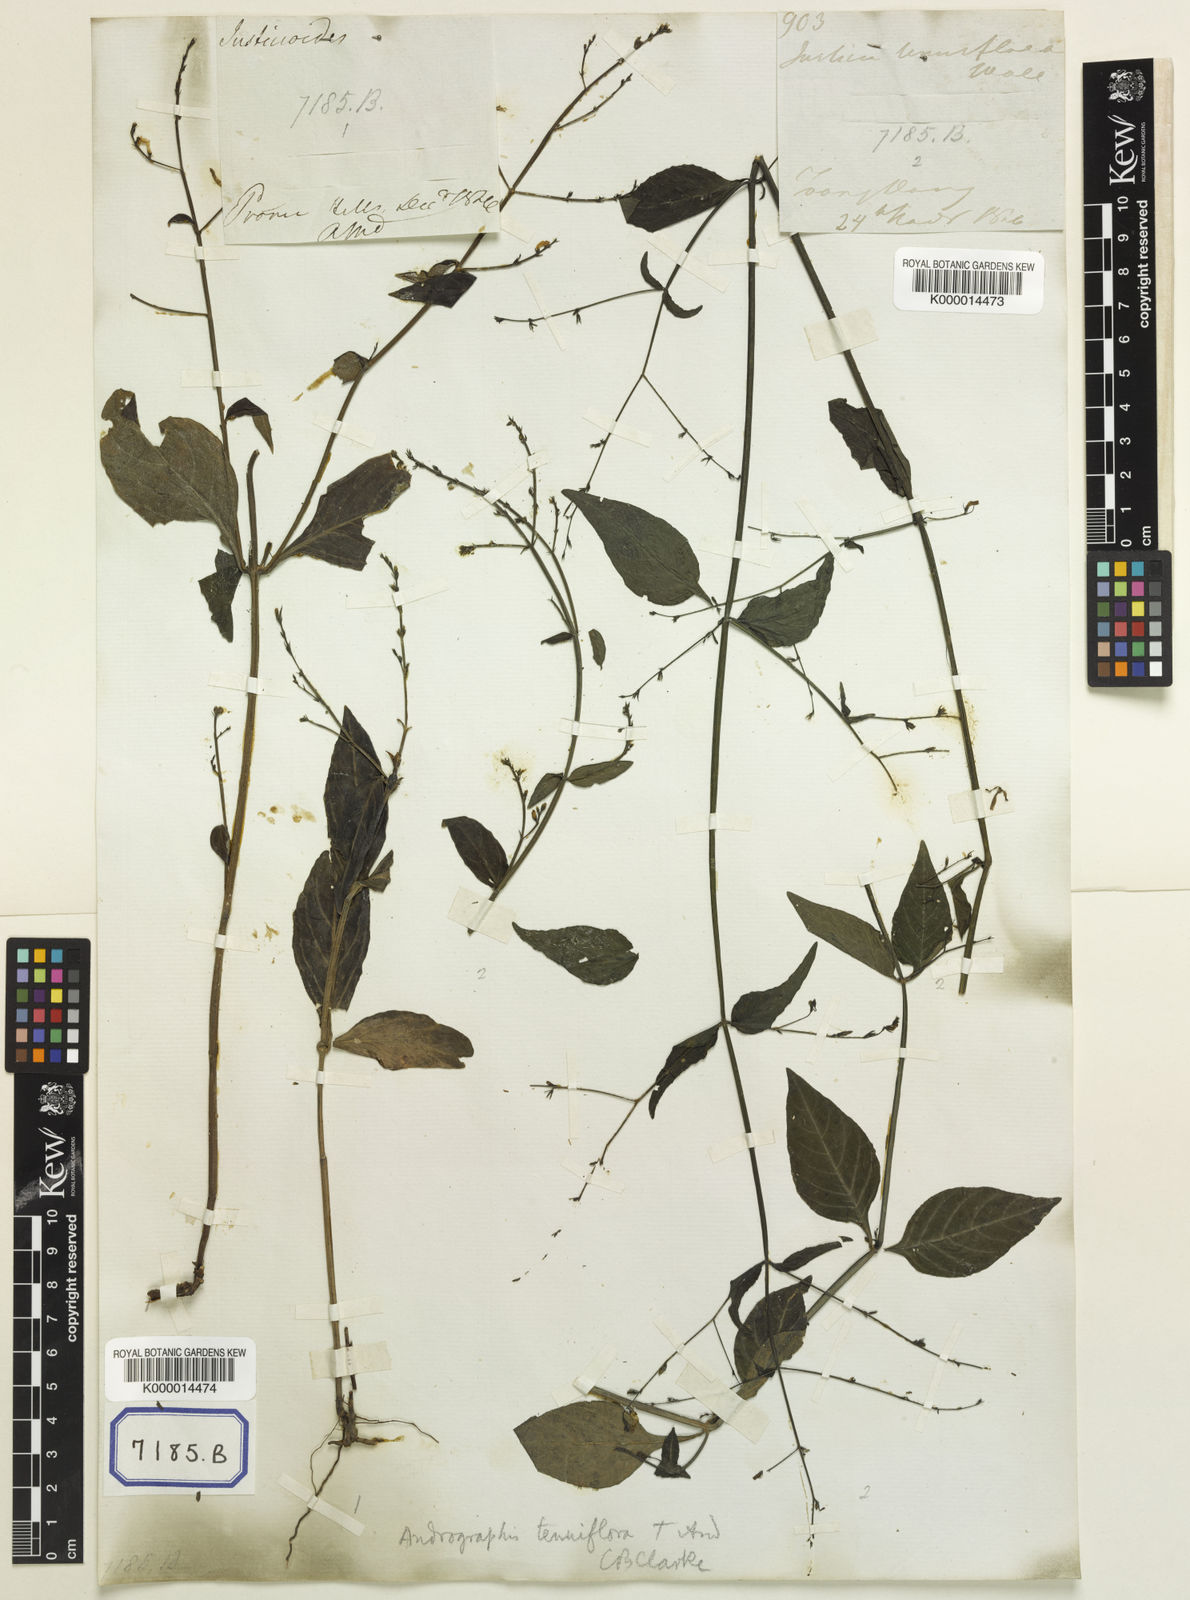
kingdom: Plantae
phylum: Tracheophyta
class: Magnoliopsida
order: Lamiales
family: Acanthaceae
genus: Haplanthus
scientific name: Haplanthus laxiflorus
